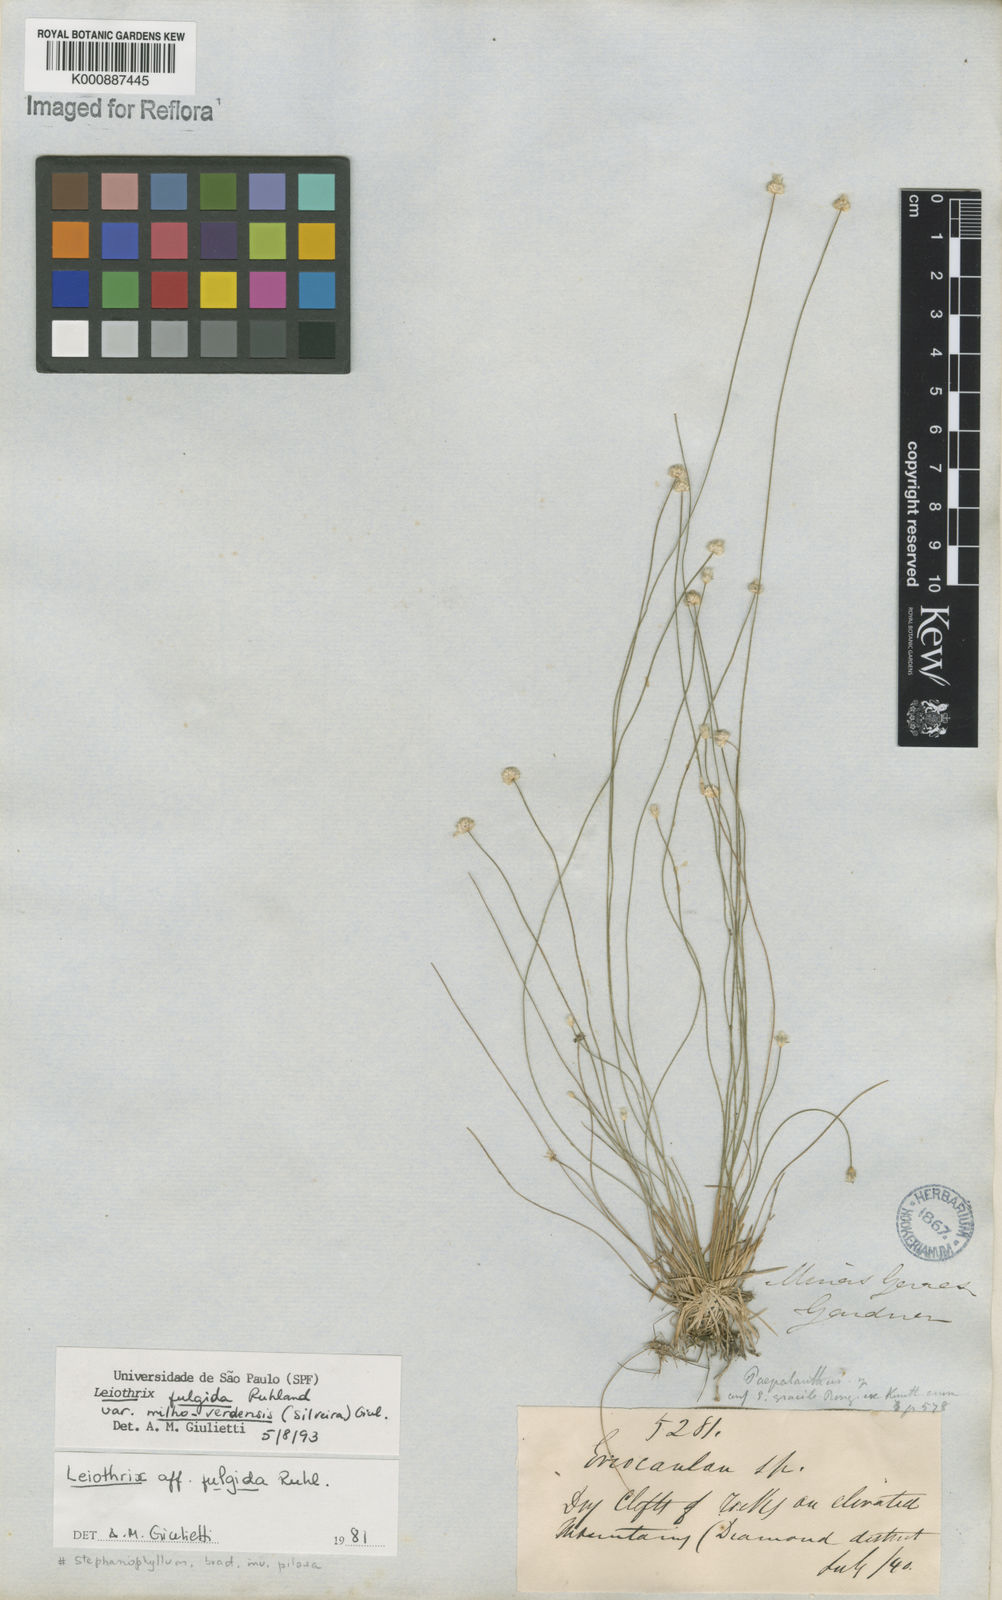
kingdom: Plantae
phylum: Tracheophyta
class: Liliopsida
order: Poales
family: Eriocaulaceae
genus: Leiothrix
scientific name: Leiothrix
